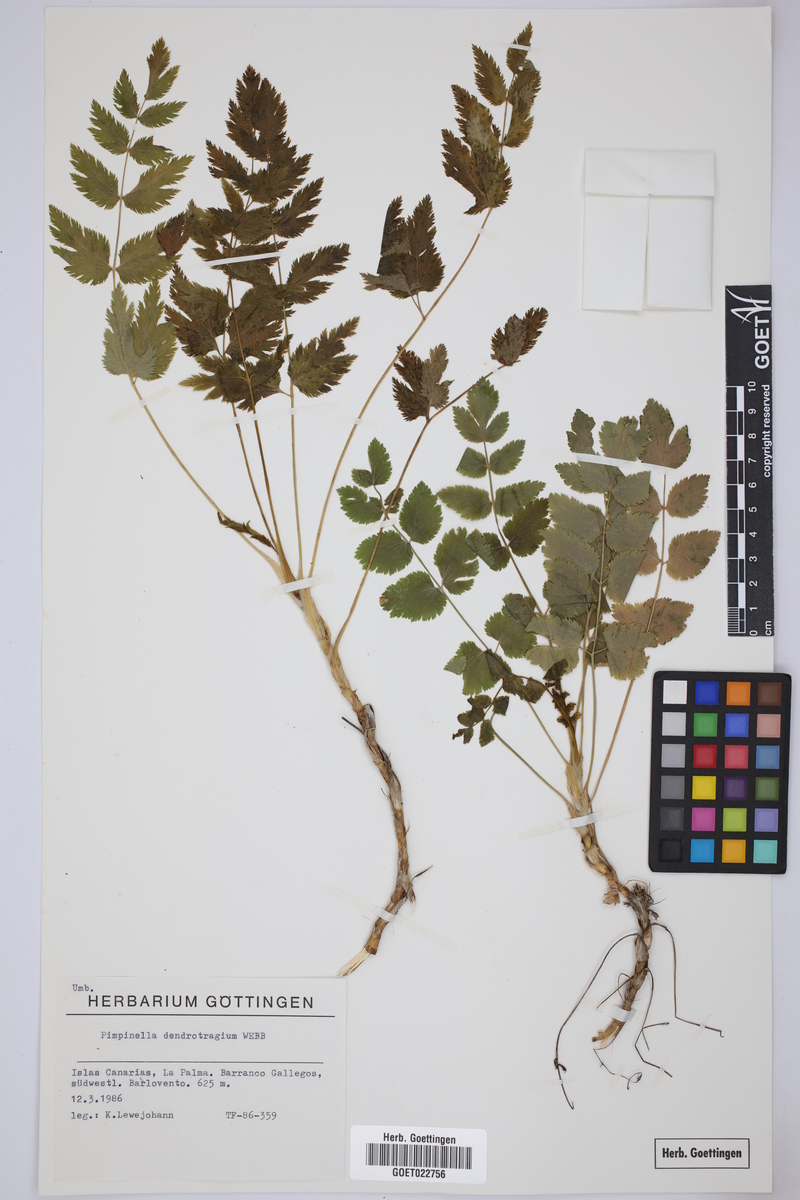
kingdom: Plantae
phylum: Tracheophyta
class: Magnoliopsida
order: Apiales
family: Apiaceae
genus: Pimpinella
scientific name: Pimpinella dendroselinum
